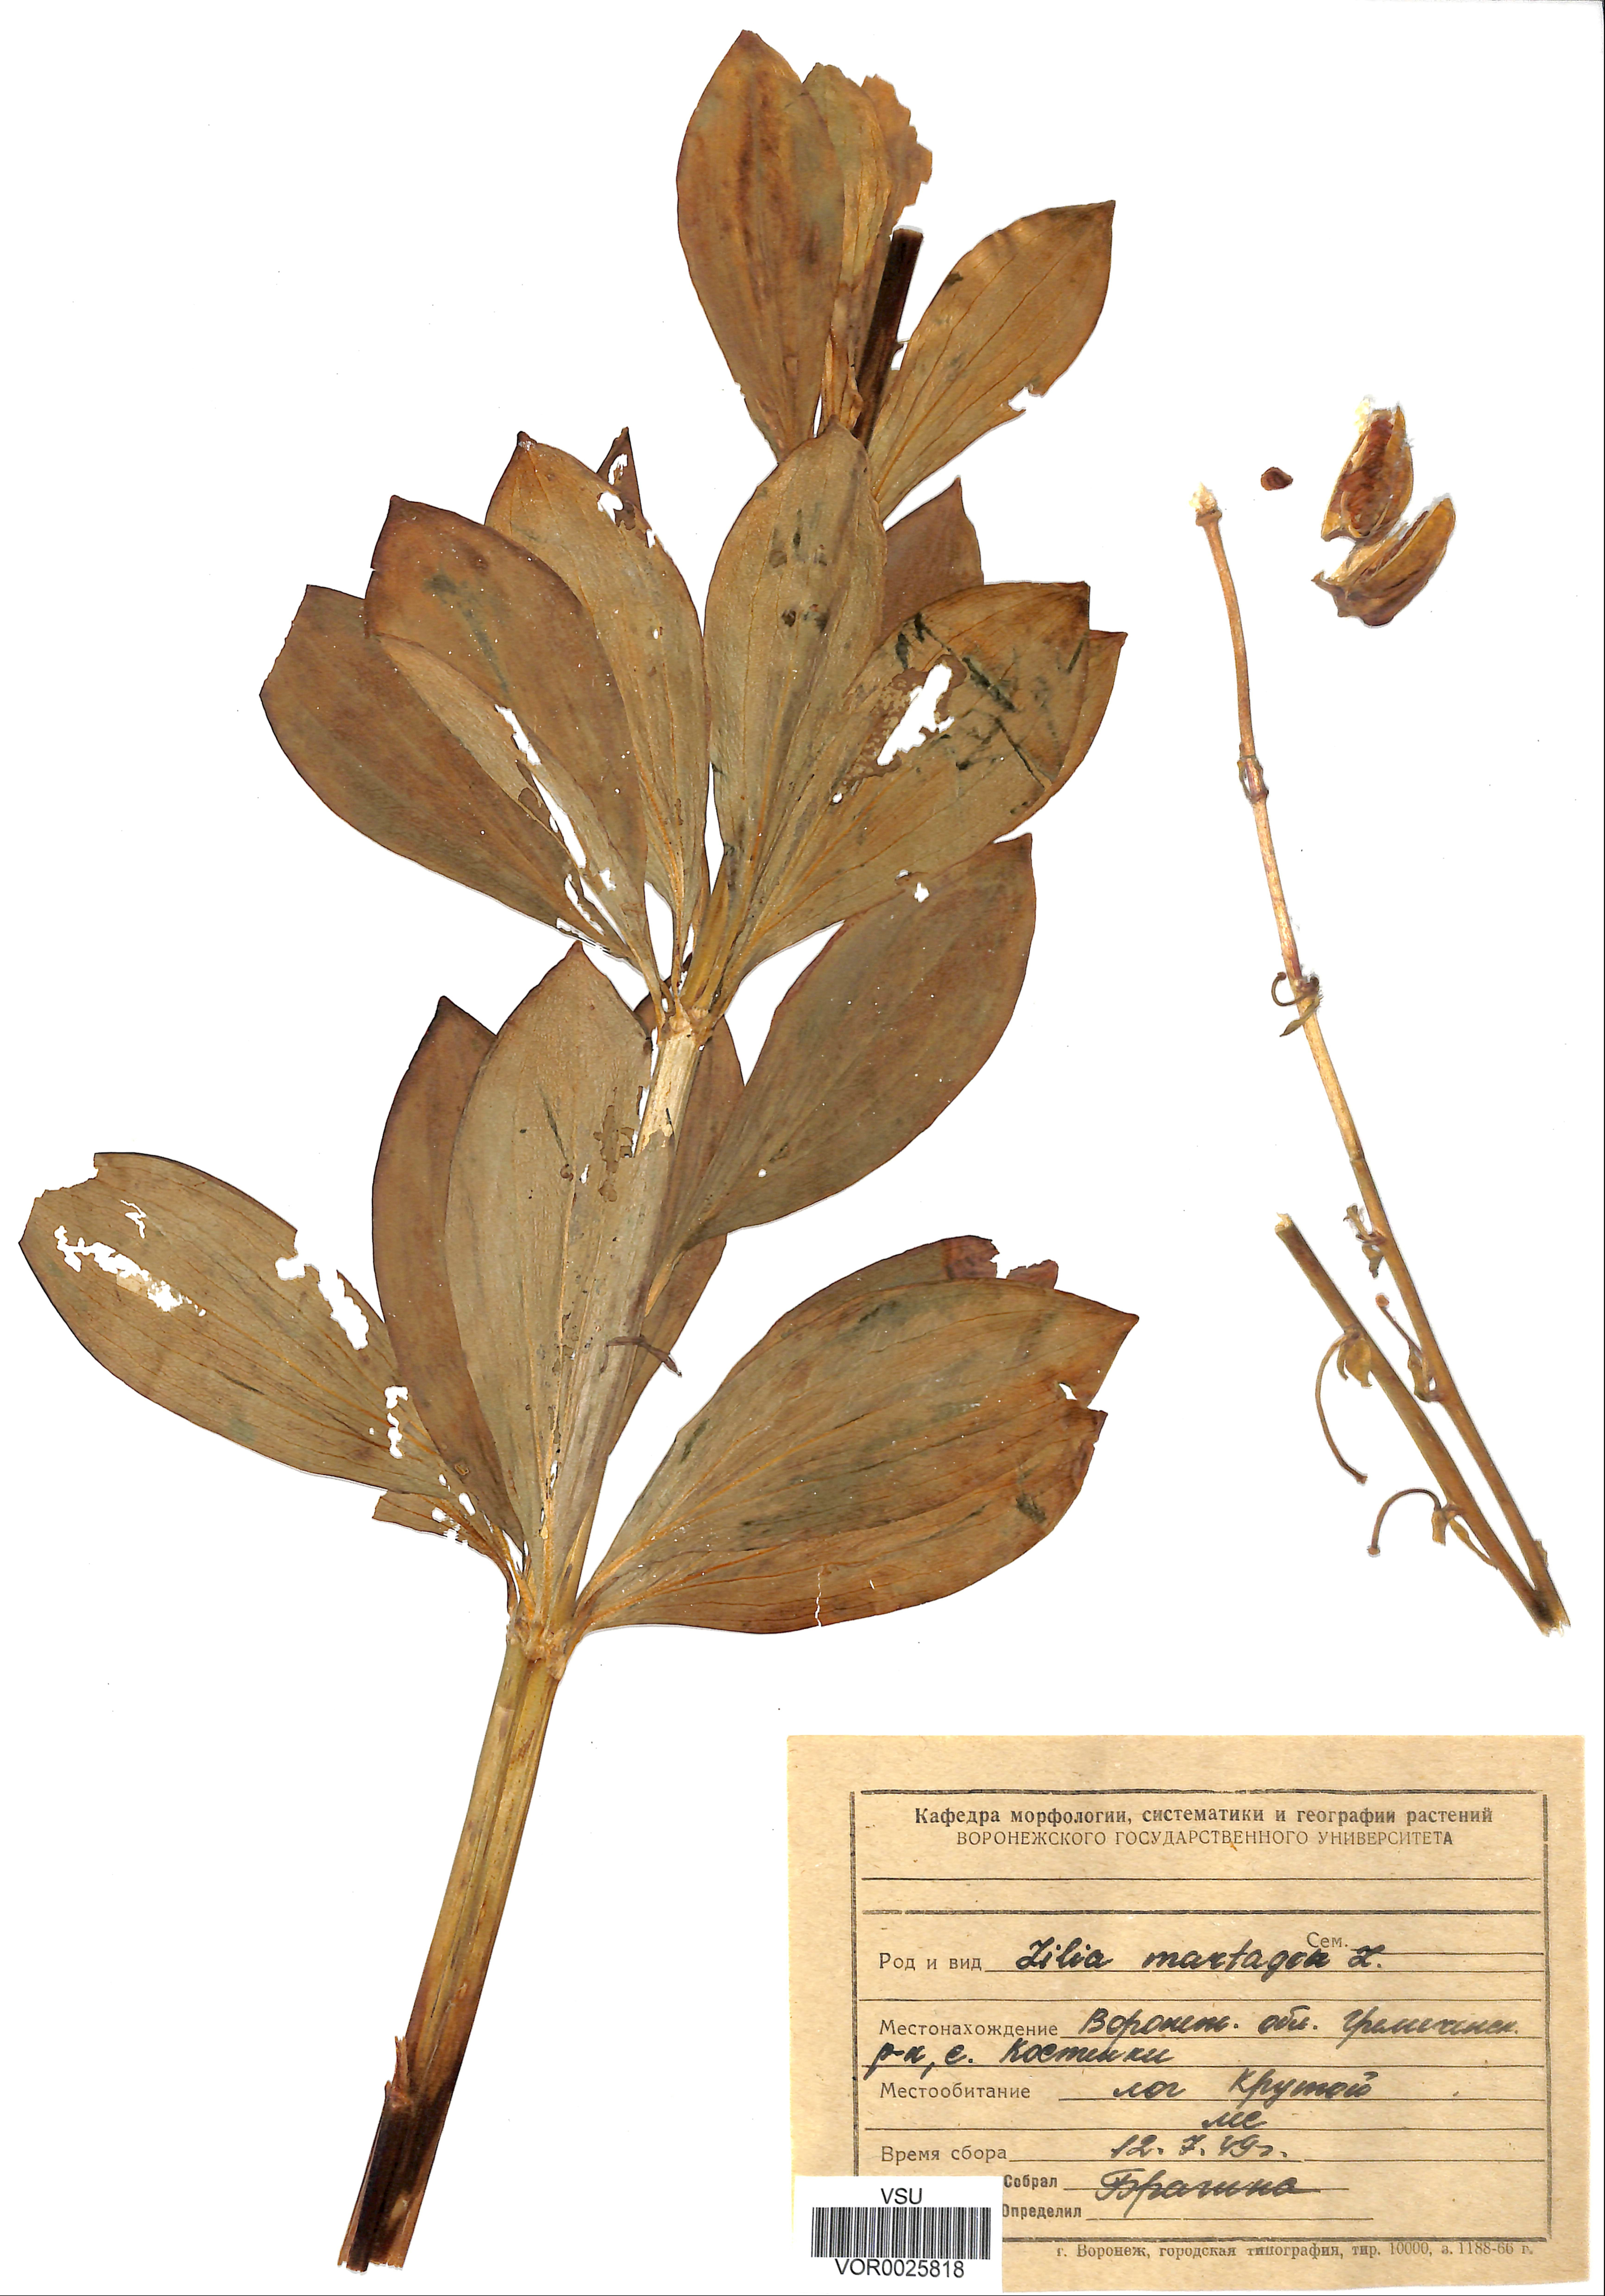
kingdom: Plantae
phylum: Tracheophyta
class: Liliopsida
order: Liliales
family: Liliaceae
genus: Lilium
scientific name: Lilium martagon
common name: Martagon lily
